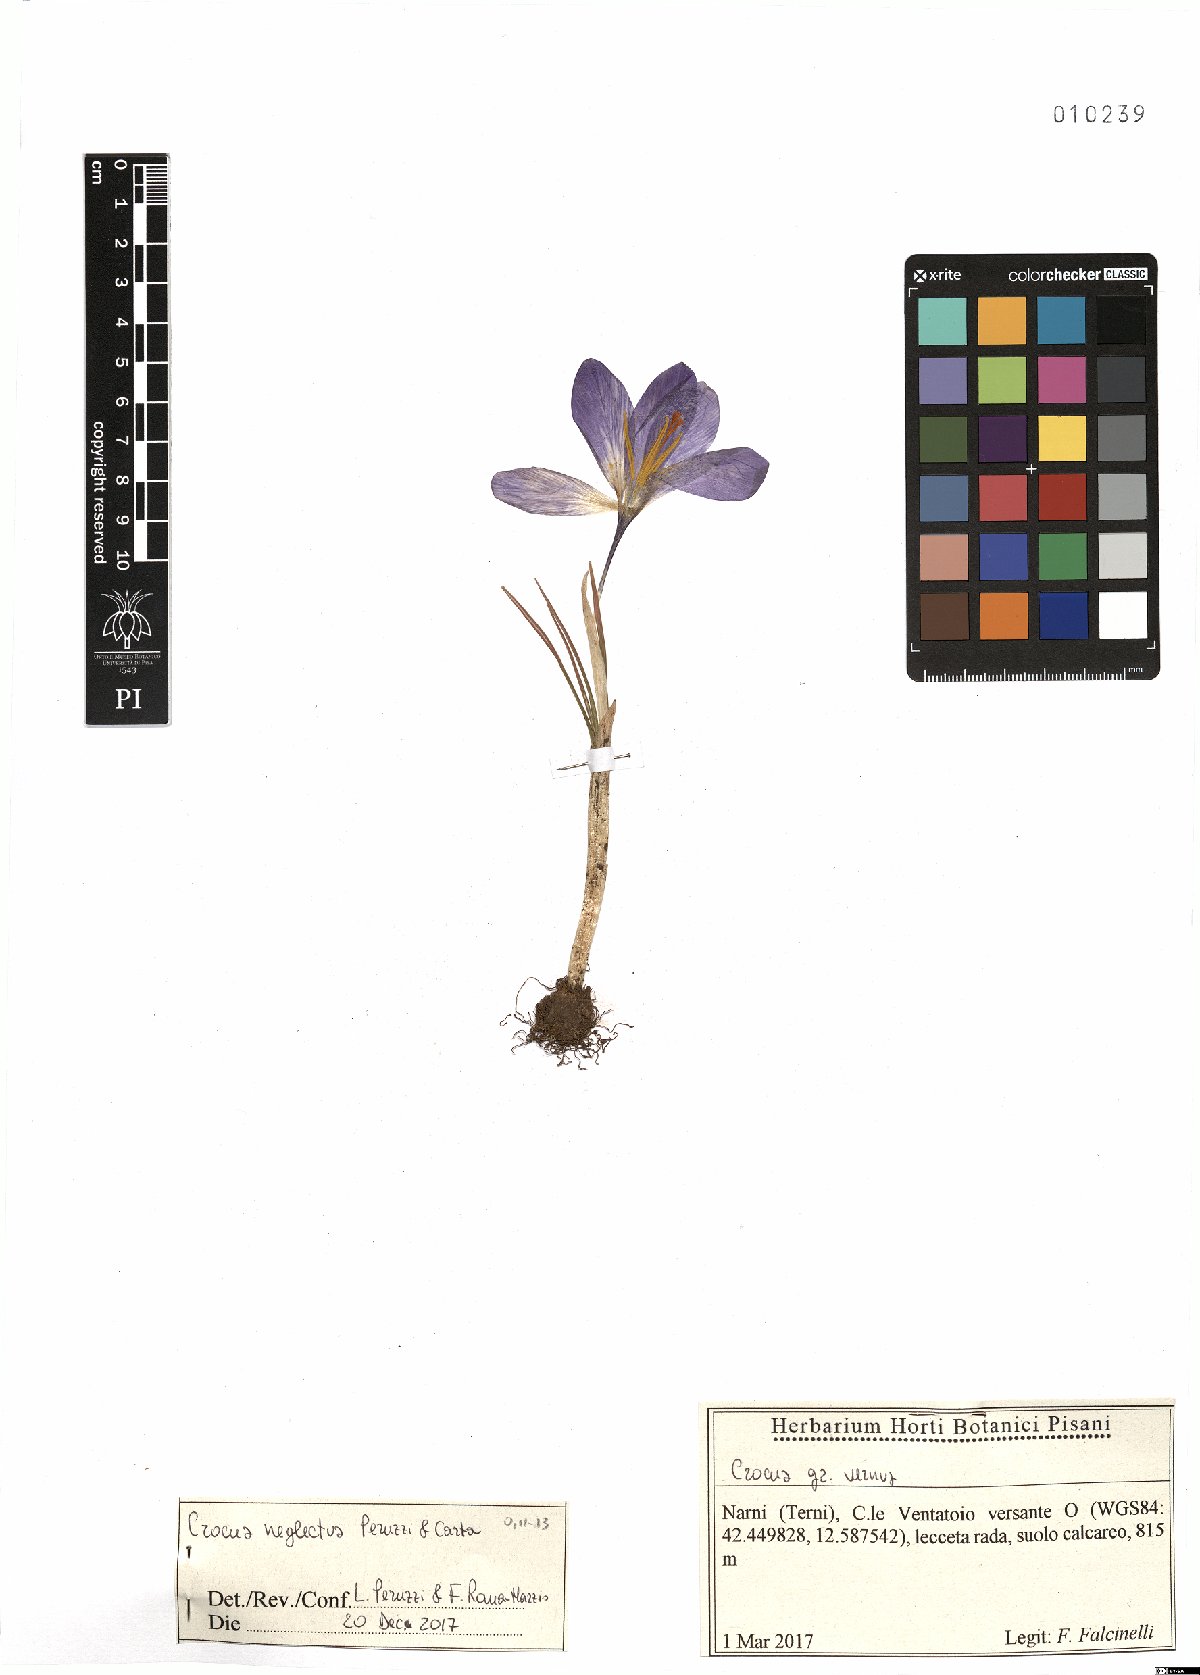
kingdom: Plantae
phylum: Tracheophyta
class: Liliopsida
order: Asparagales
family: Iridaceae
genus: Crocus
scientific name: Crocus neglectus
